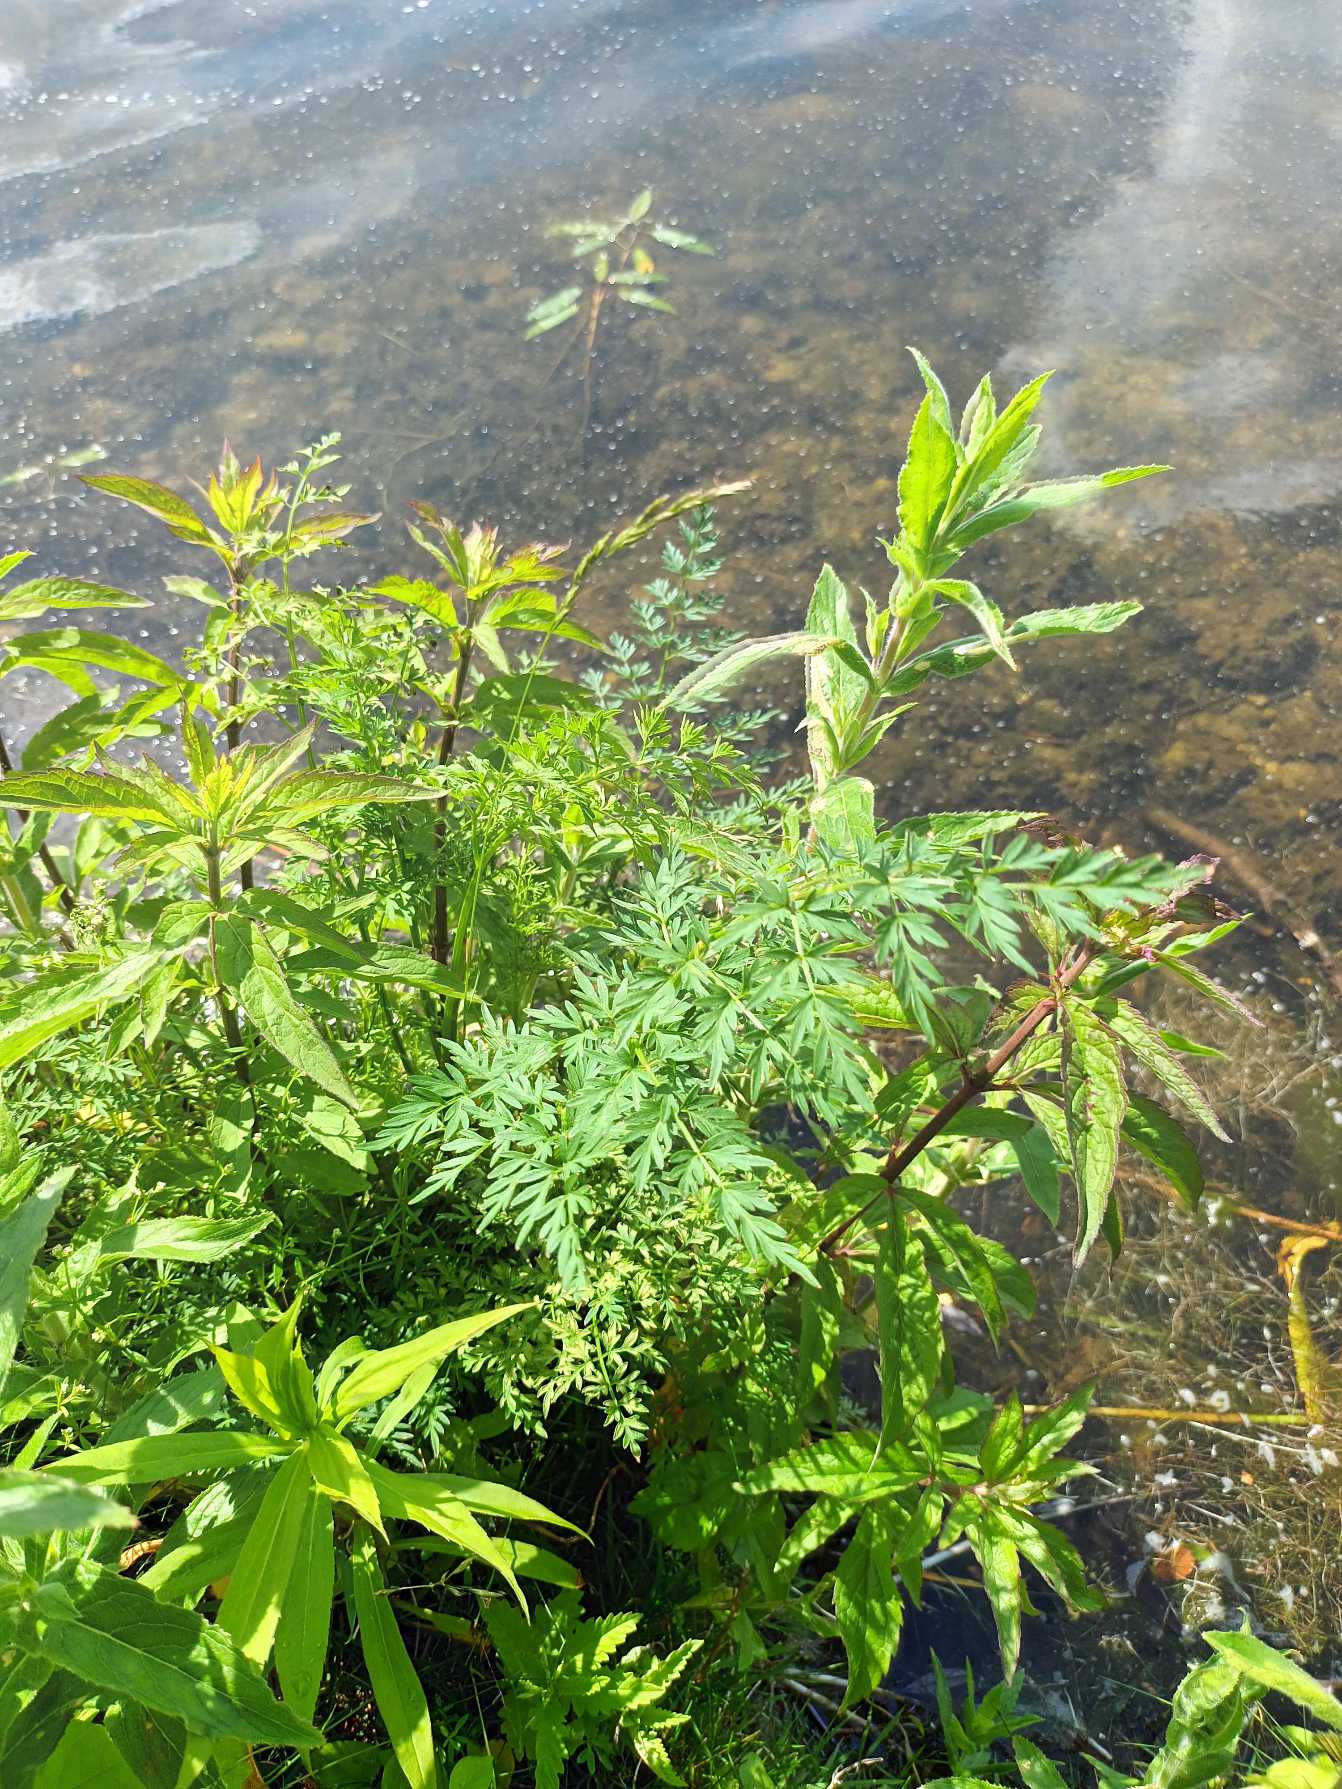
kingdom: Plantae
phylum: Tracheophyta
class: Magnoliopsida
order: Apiales
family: Apiaceae
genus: Thysselinum
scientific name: Thysselinum palustre
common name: Kær-svovlrod
